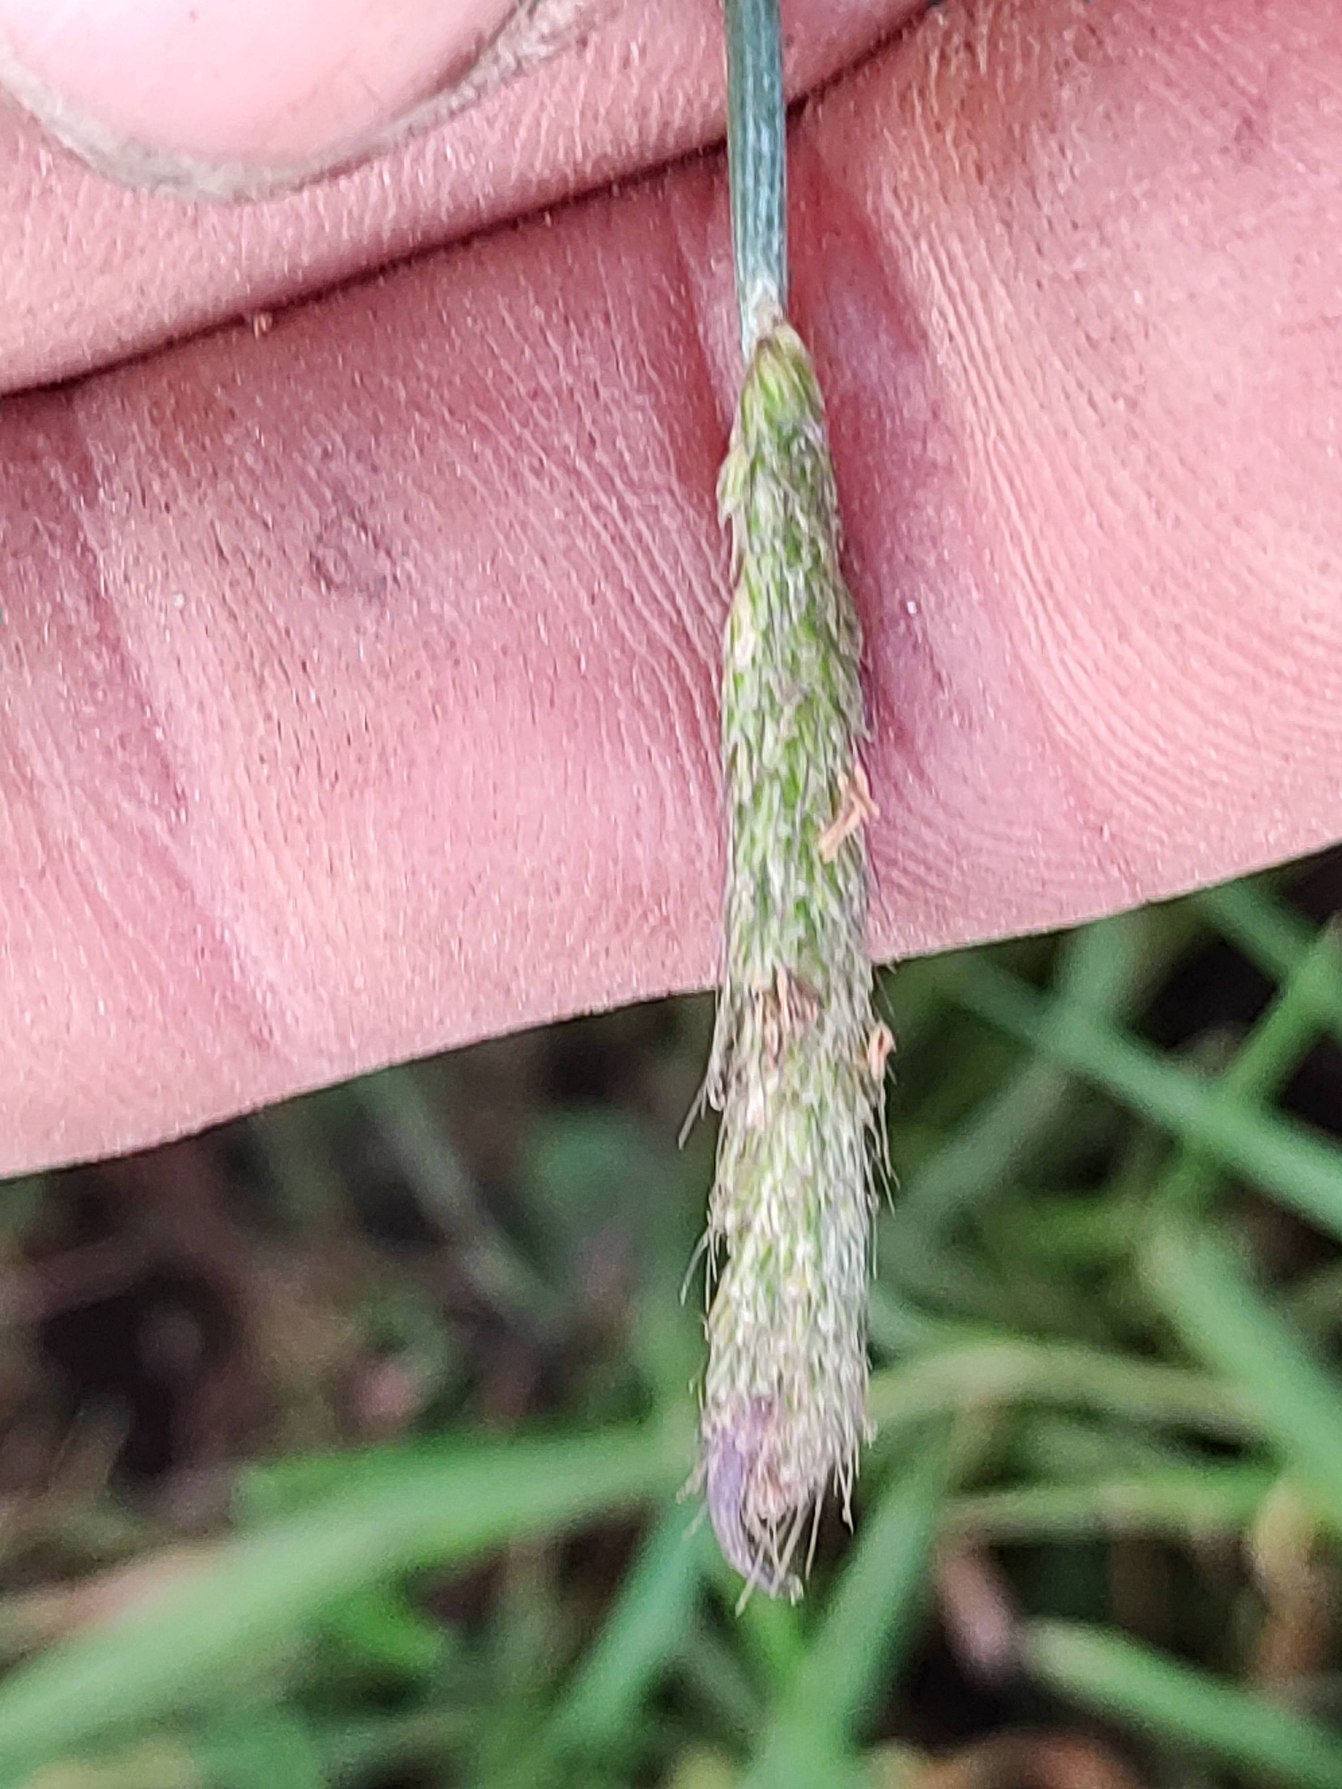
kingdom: Plantae
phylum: Tracheophyta
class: Liliopsida
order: Poales
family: Poaceae
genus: Alopecurus
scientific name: Alopecurus geniculatus
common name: Knæbøjet rævehale
